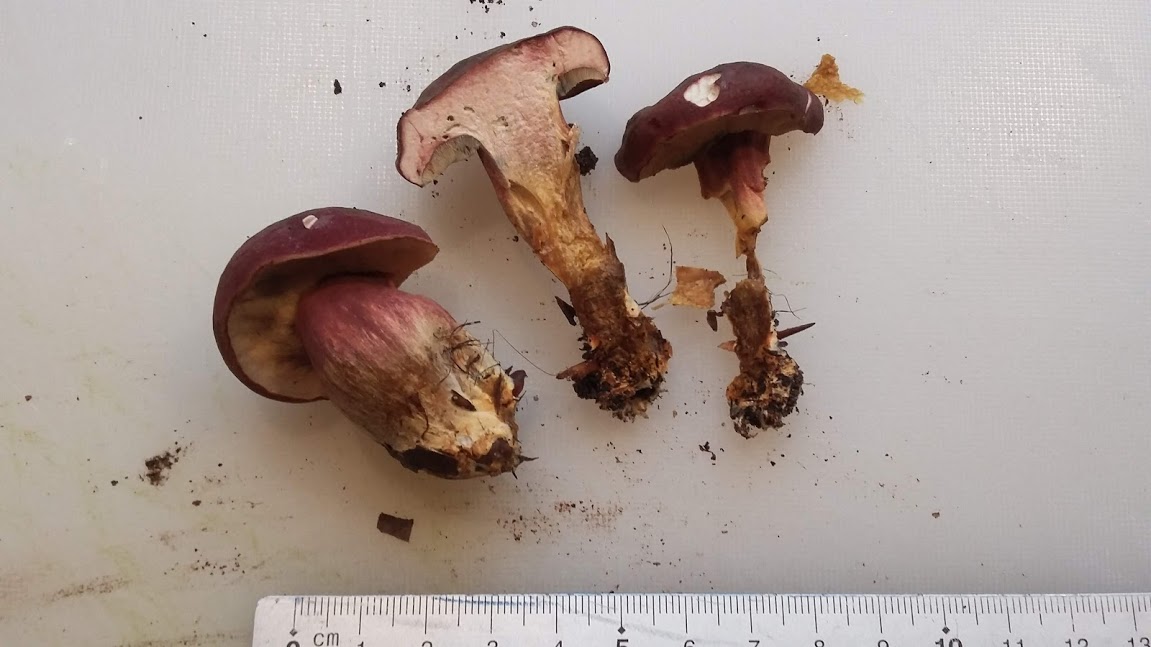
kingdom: Fungi
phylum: Basidiomycota
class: Agaricomycetes
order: Boletales
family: Boletaceae
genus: Hortiboletus
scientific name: Hortiboletus rubellus
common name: blodrød rørhat
